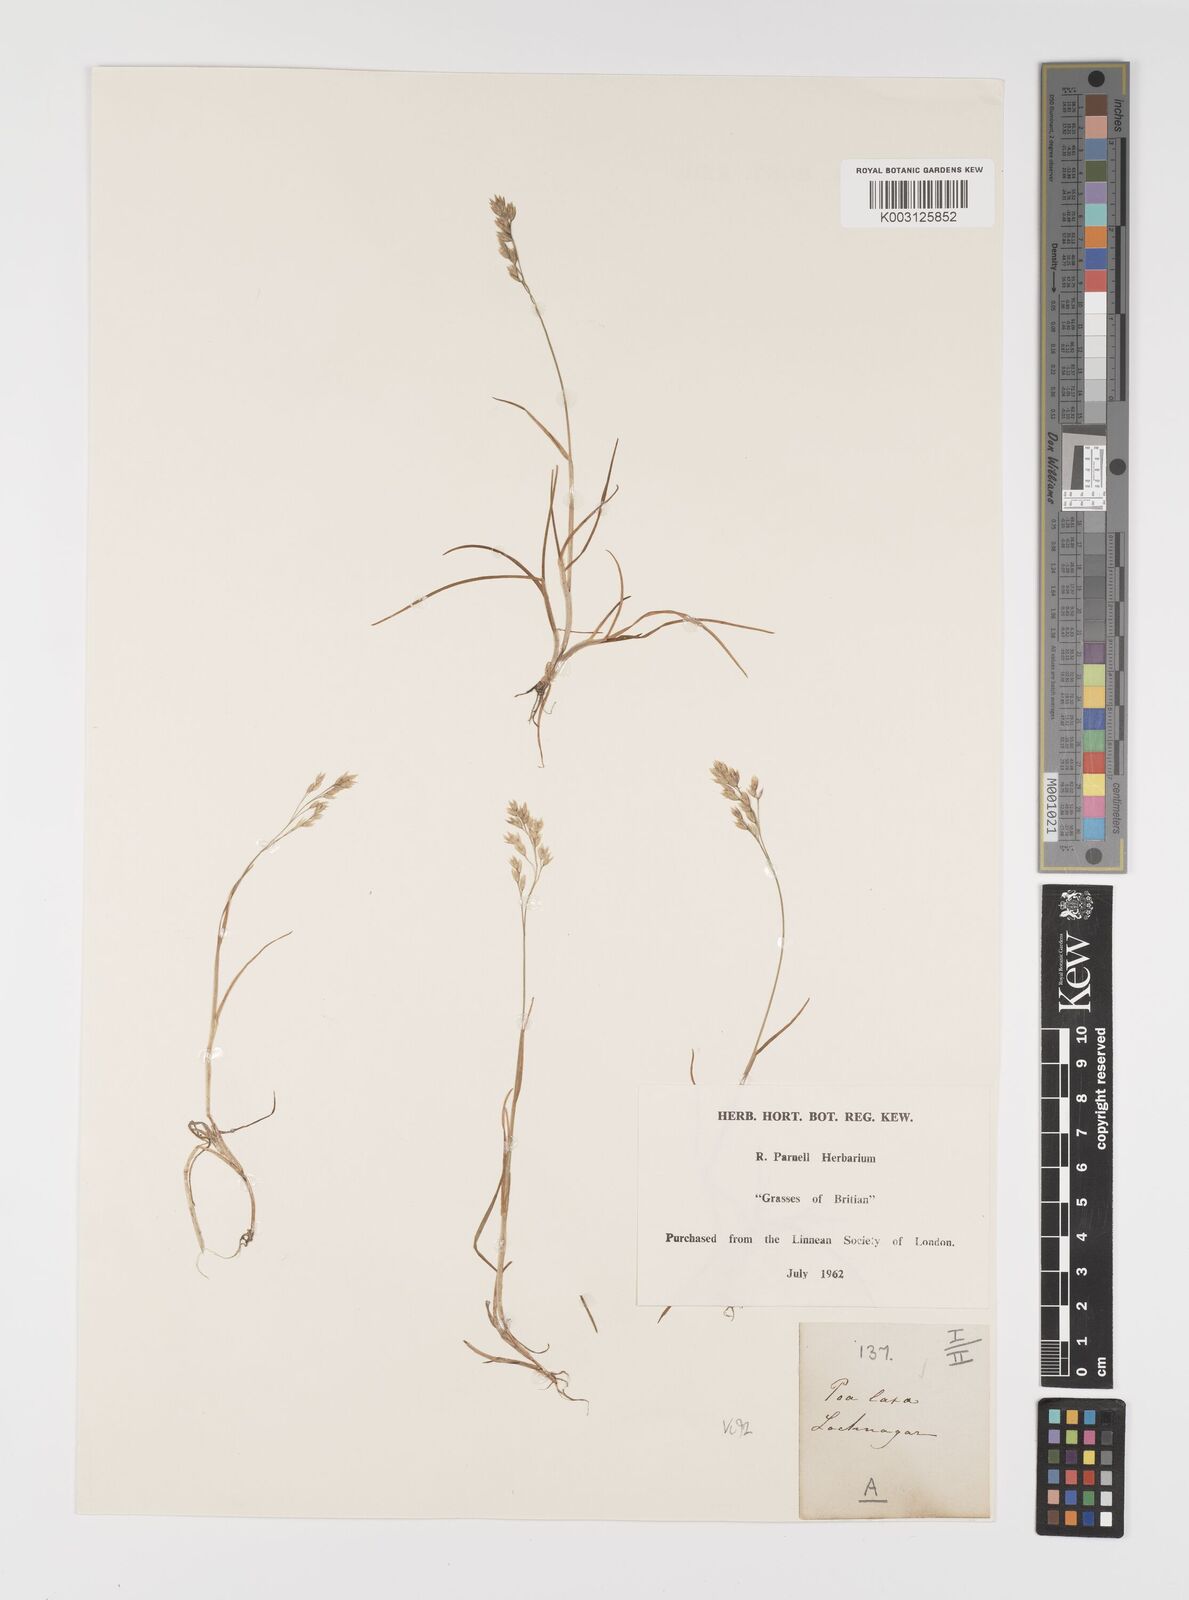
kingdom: Plantae
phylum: Tracheophyta
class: Liliopsida
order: Poales
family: Poaceae
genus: Eragrostis
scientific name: Eragrostis cilianensis
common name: Stinkgrass
